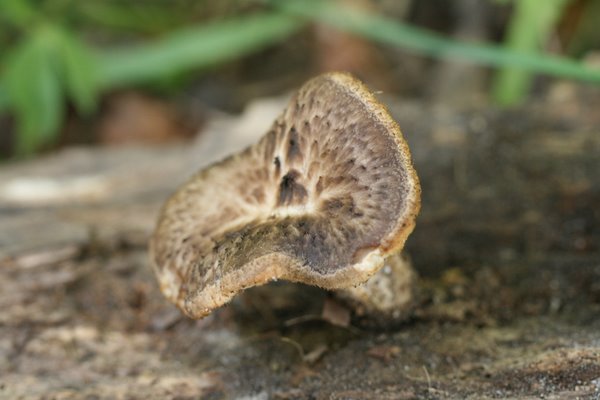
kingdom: Fungi
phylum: Basidiomycota
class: Agaricomycetes
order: Polyporales
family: Polyporaceae
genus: Polyporus
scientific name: Polyporus tuberaster
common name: knoldet stilkporesvamp
